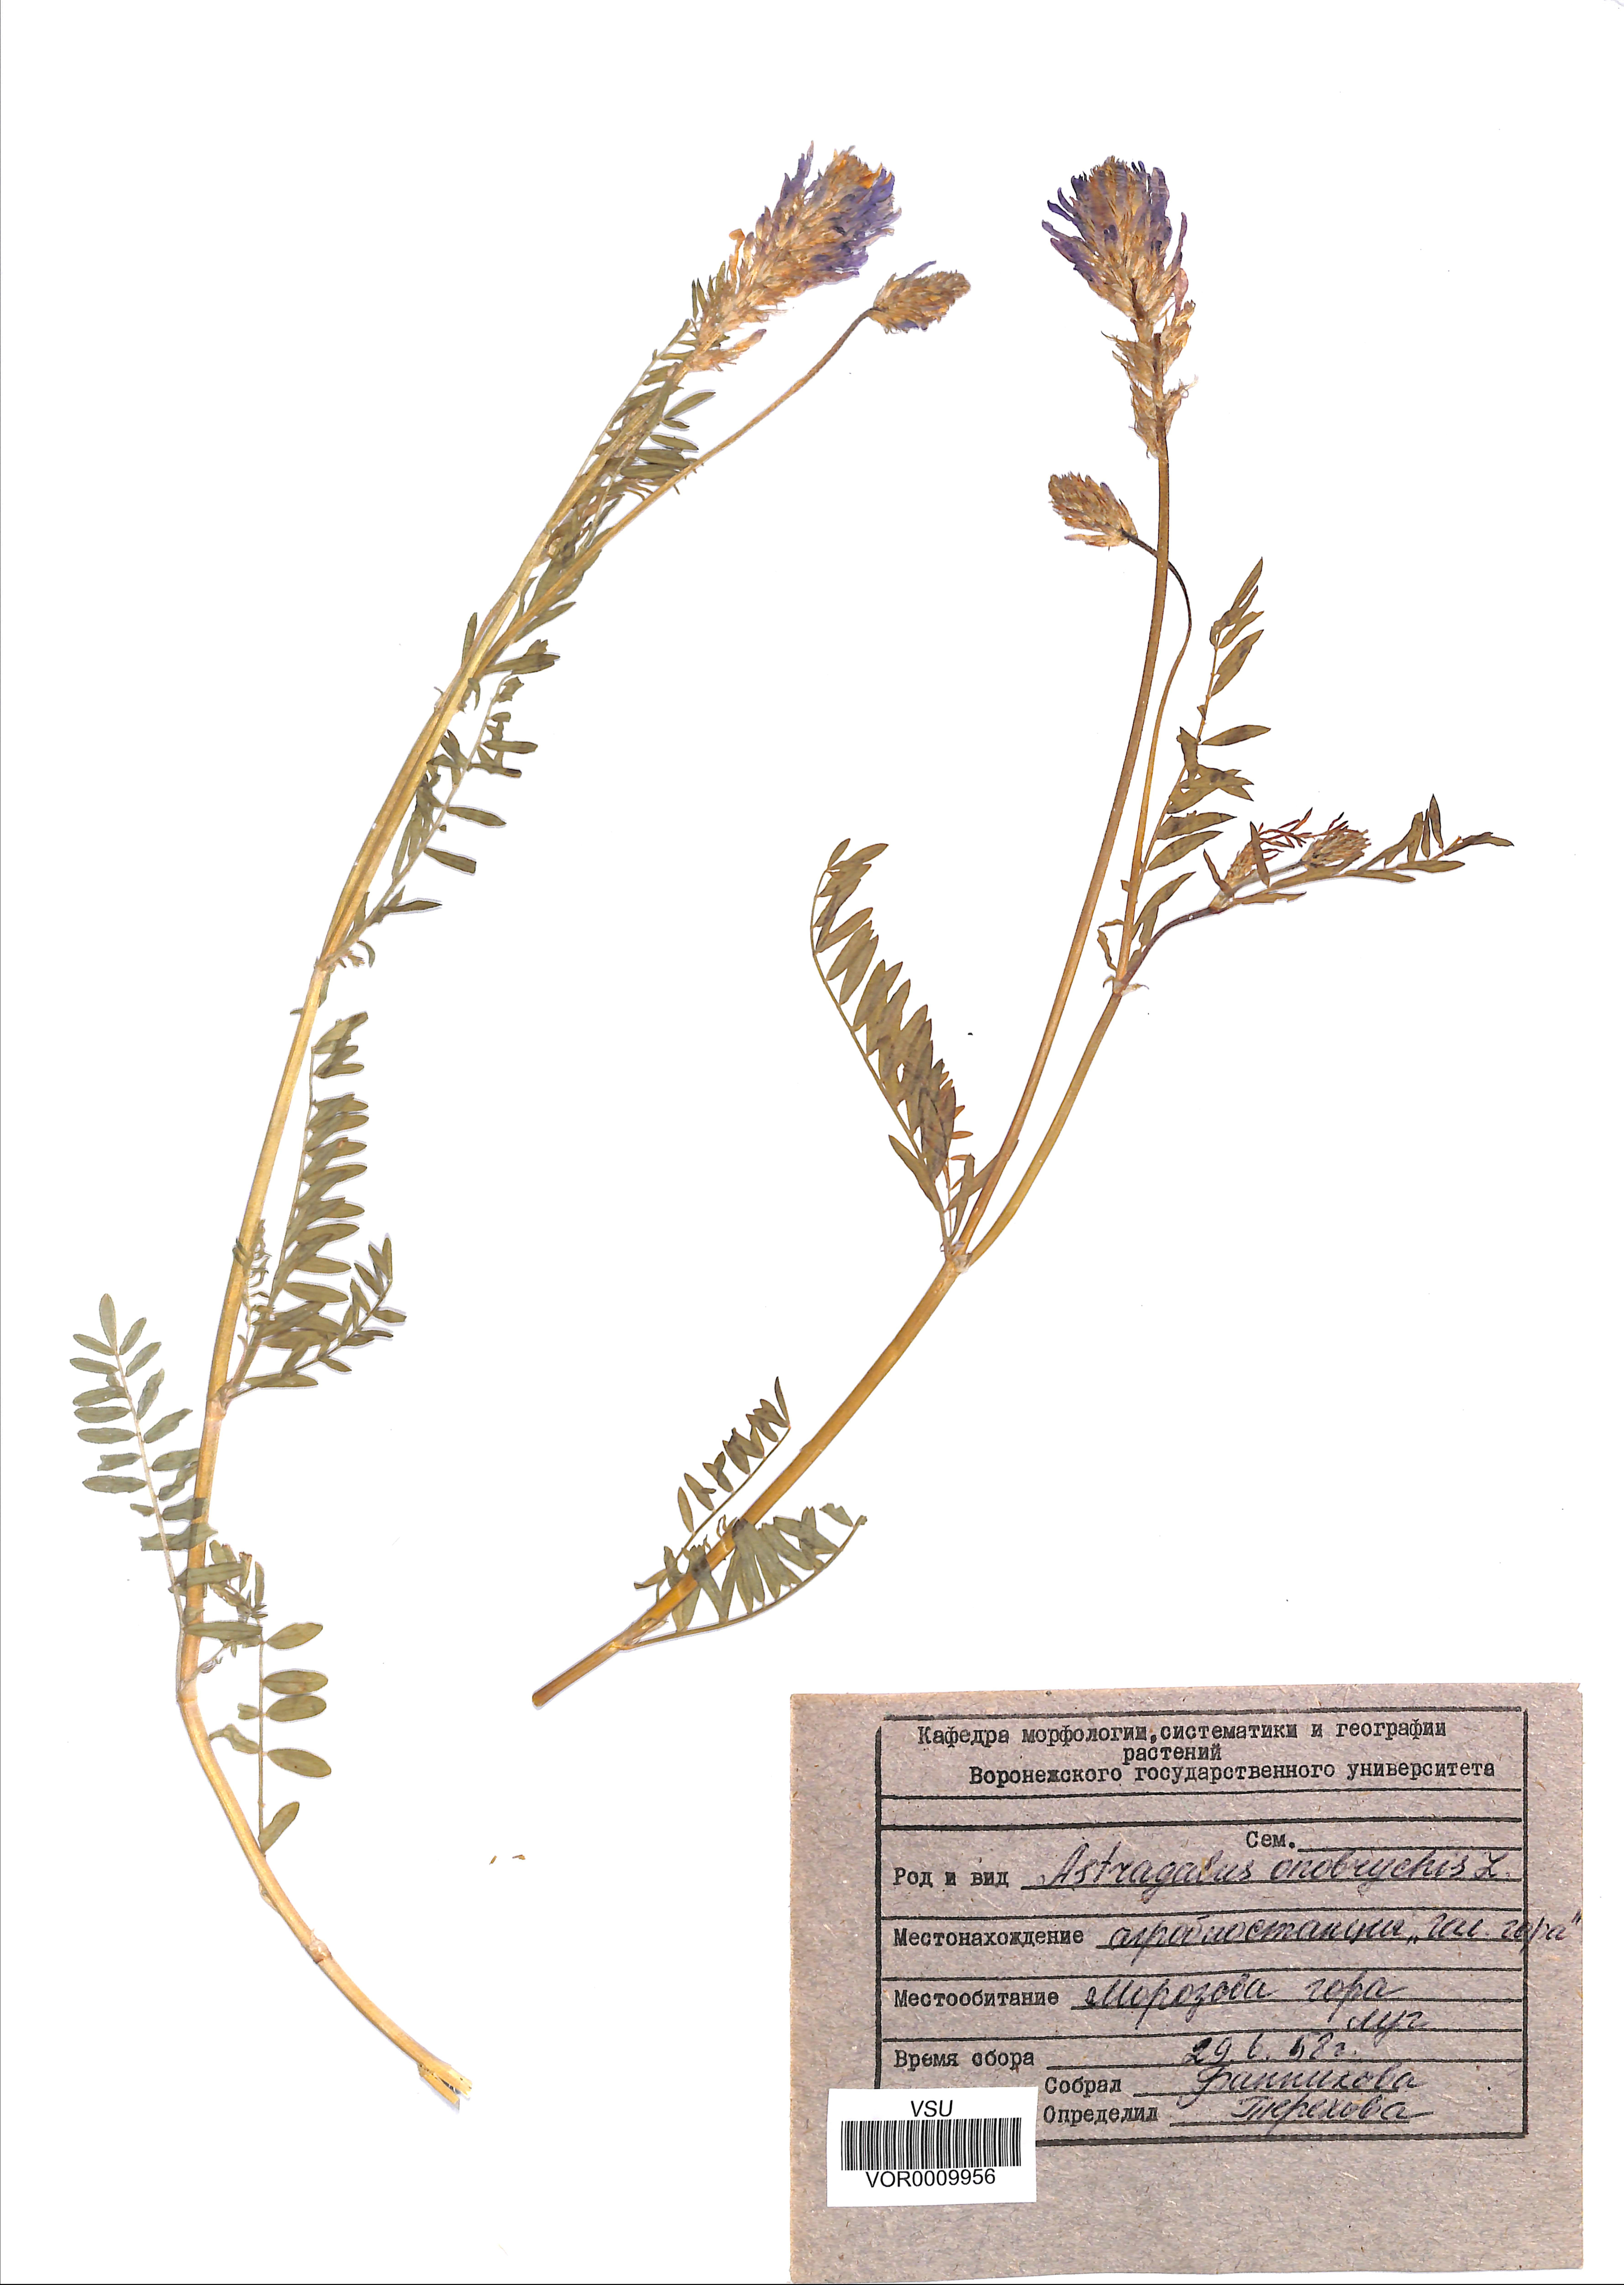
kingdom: Plantae
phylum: Tracheophyta
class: Magnoliopsida
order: Fabales
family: Fabaceae
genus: Astragalus
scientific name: Astragalus onobrychis
